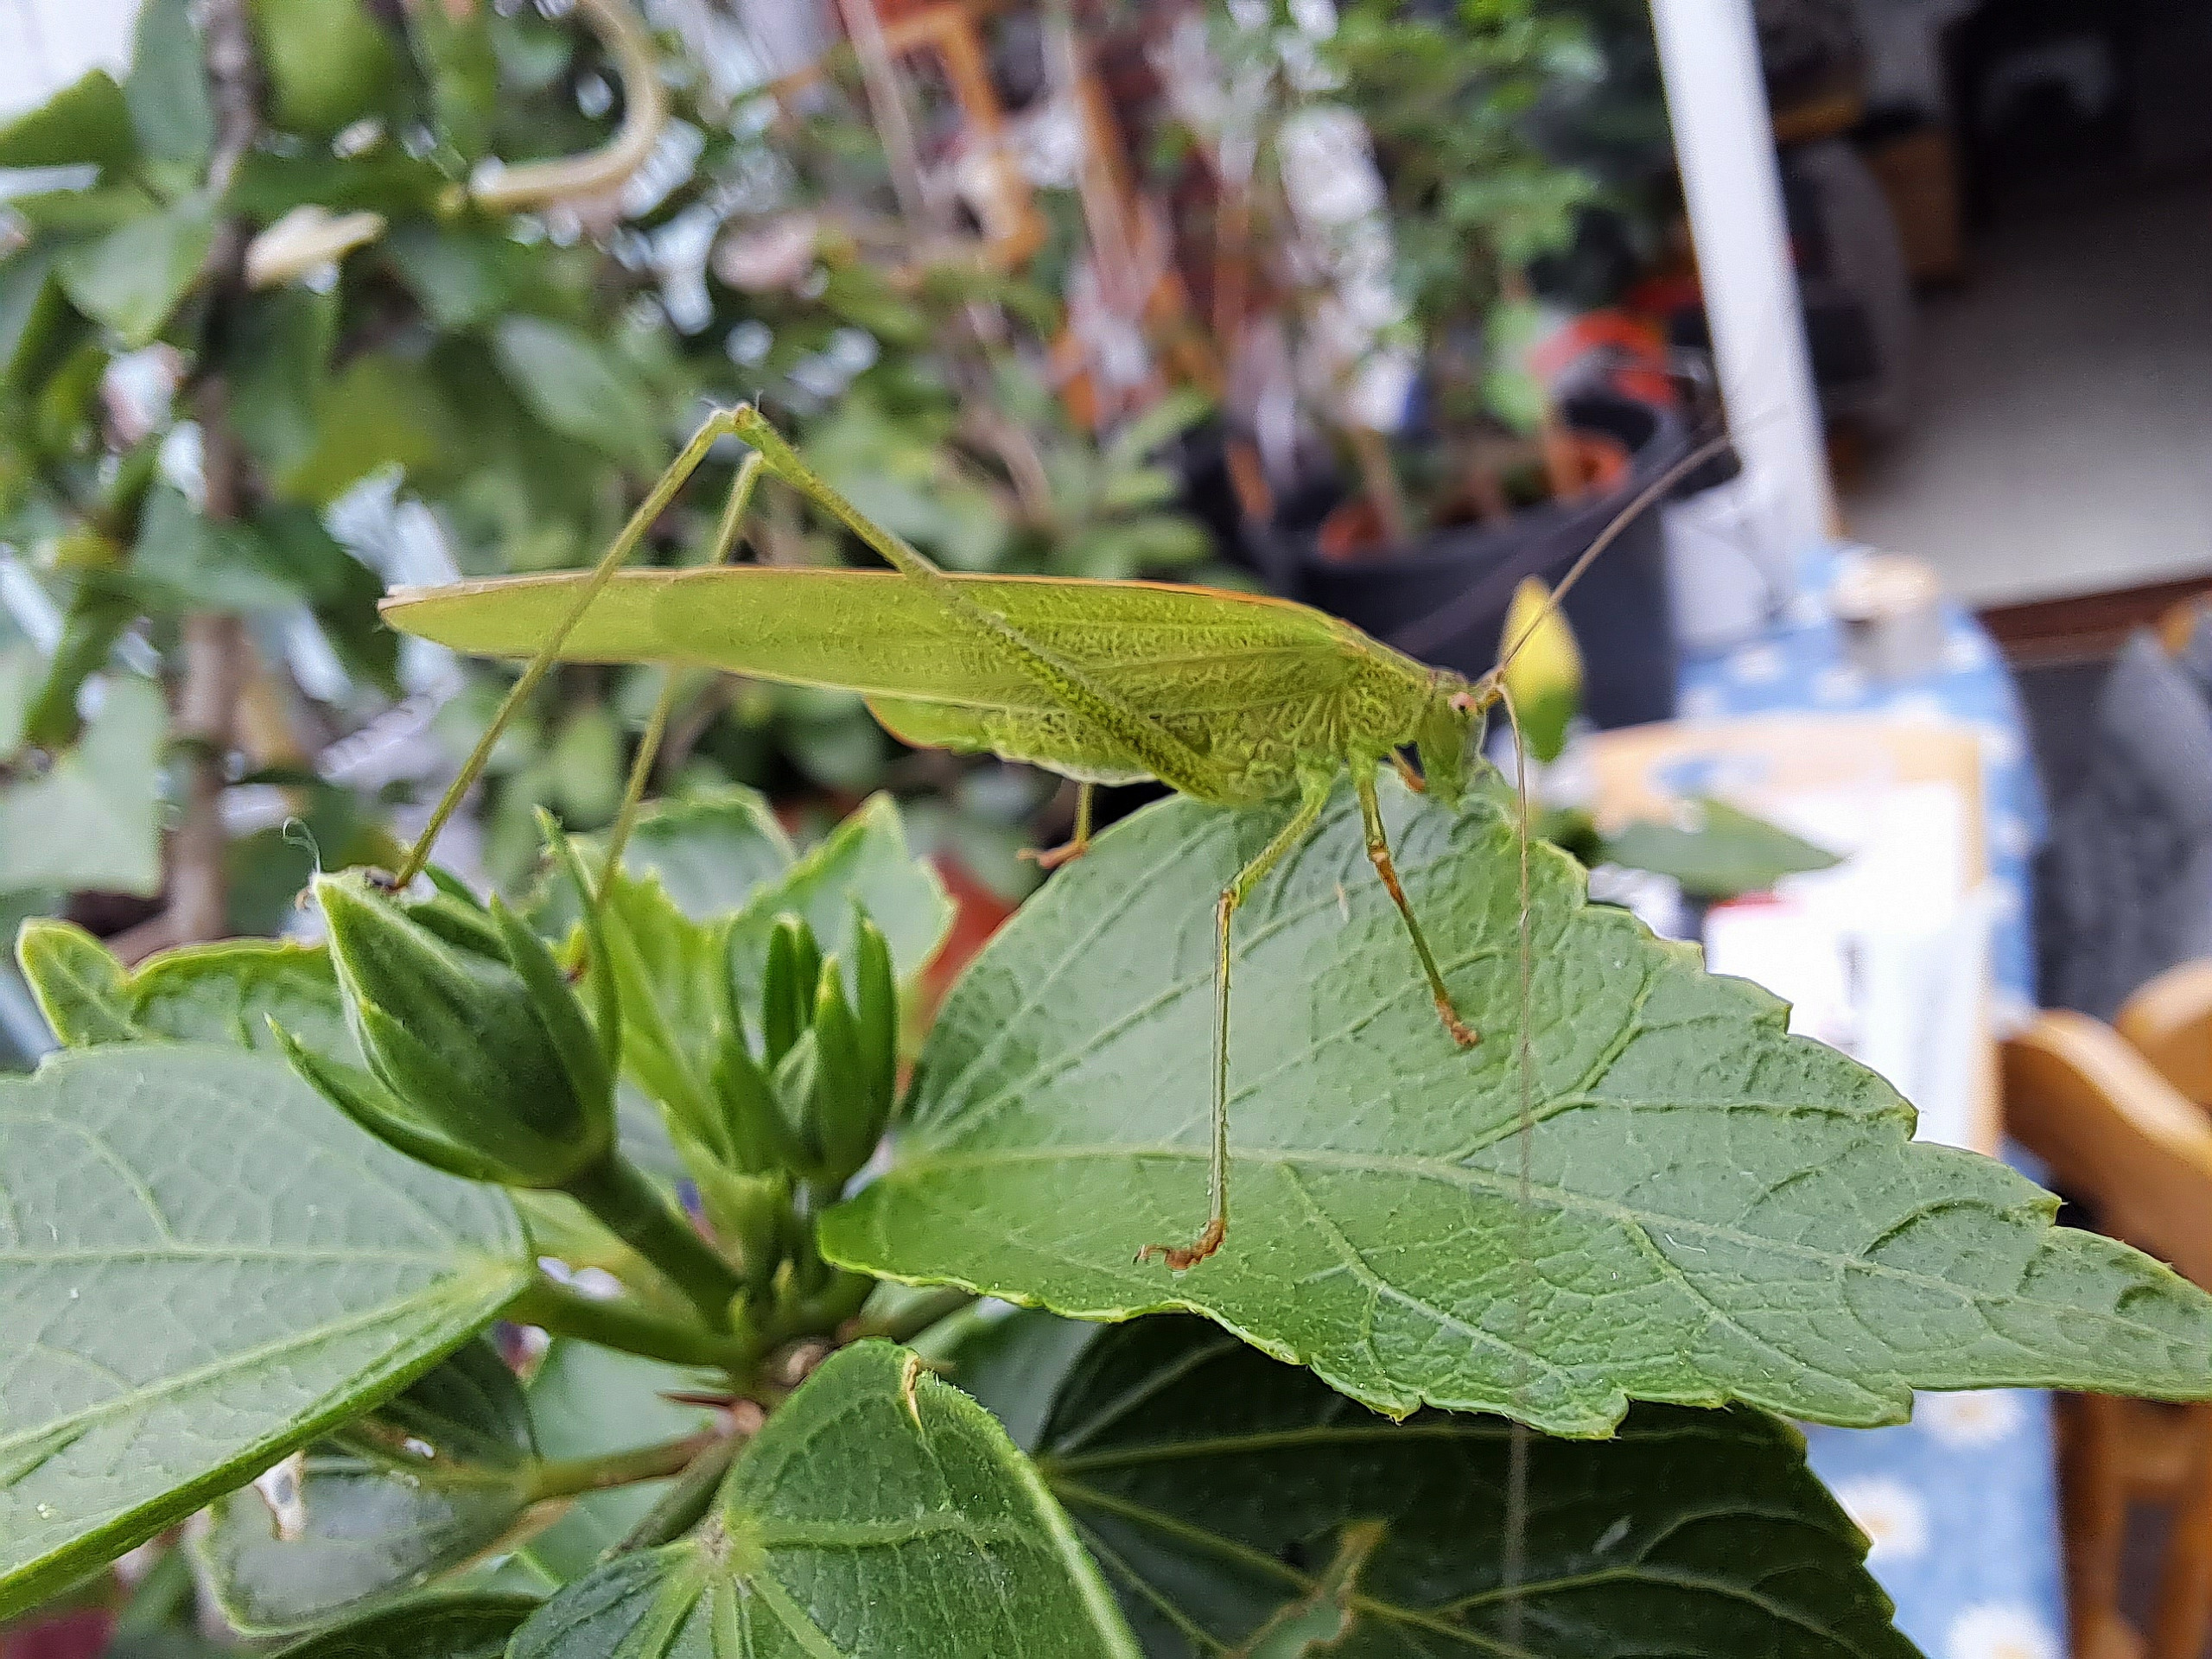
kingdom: Animalia
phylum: Arthropoda
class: Insecta
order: Orthoptera
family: Tettigoniidae
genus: Phaneroptera
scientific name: Phaneroptera falcata
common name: Seglgræshoppe
